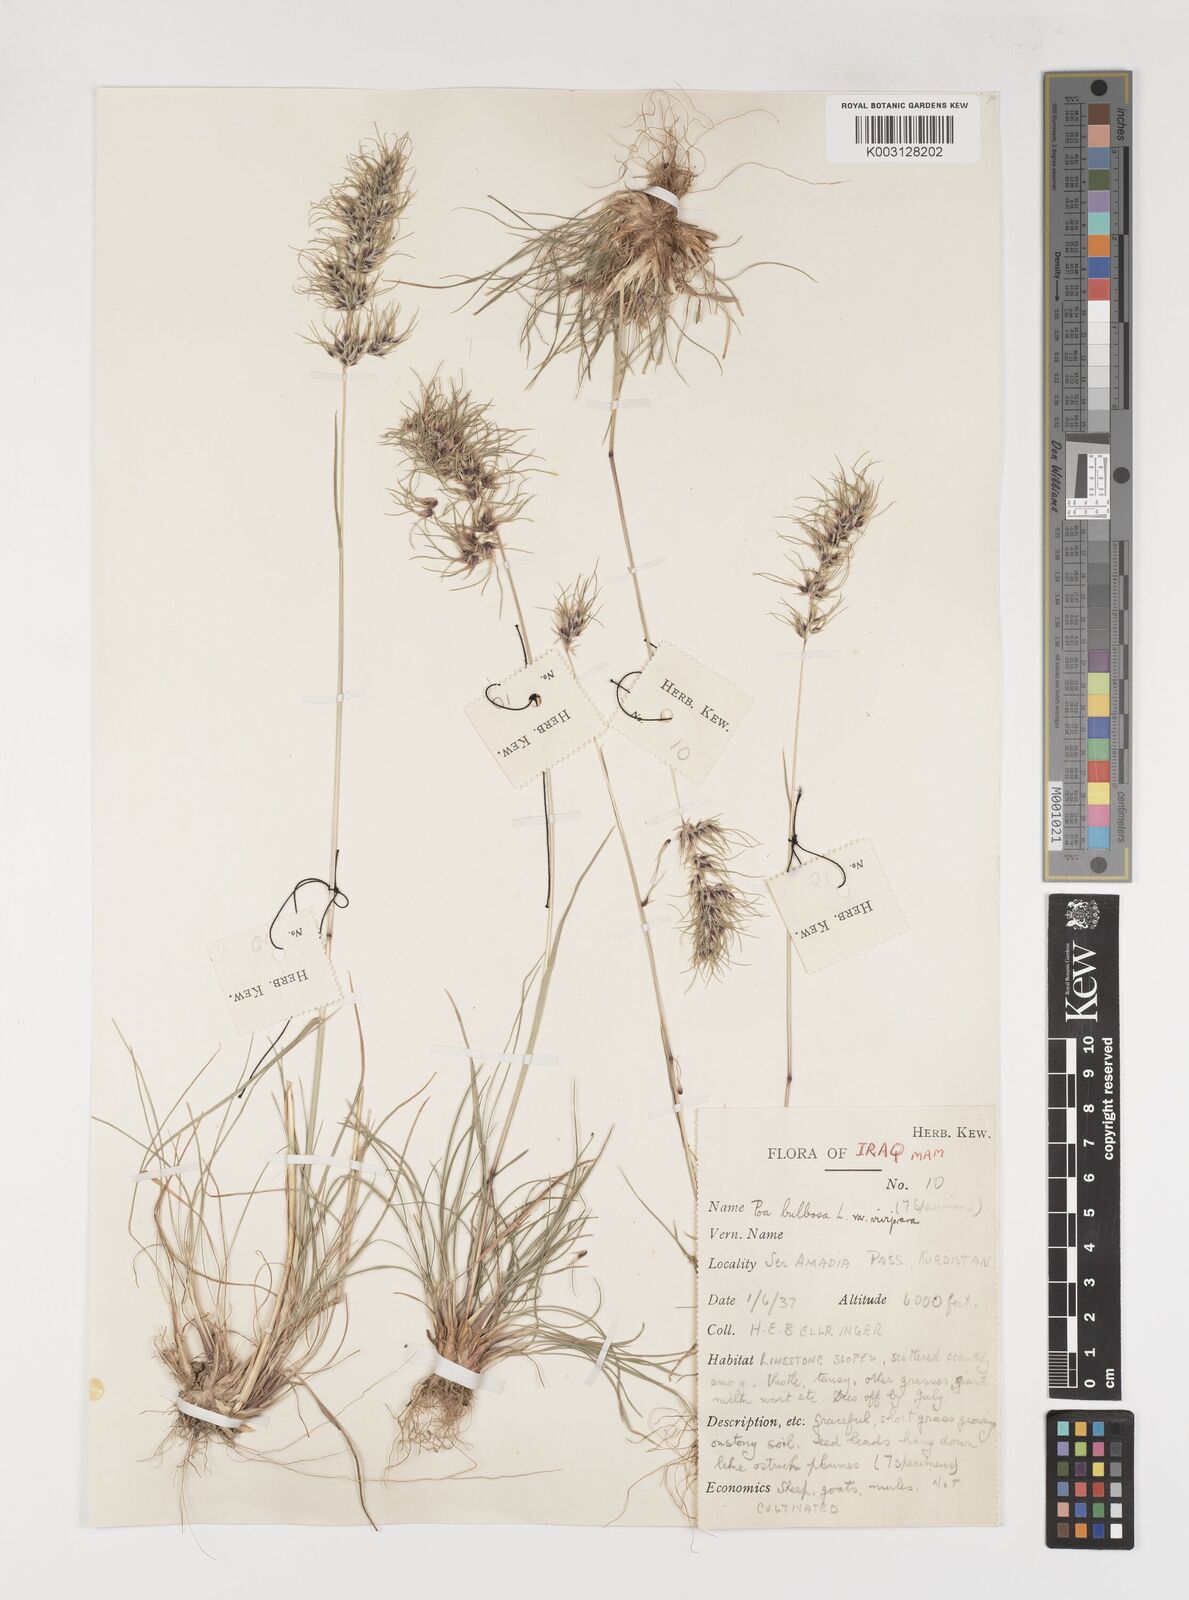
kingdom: Plantae
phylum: Tracheophyta
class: Liliopsida
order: Poales
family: Poaceae
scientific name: Poaceae
